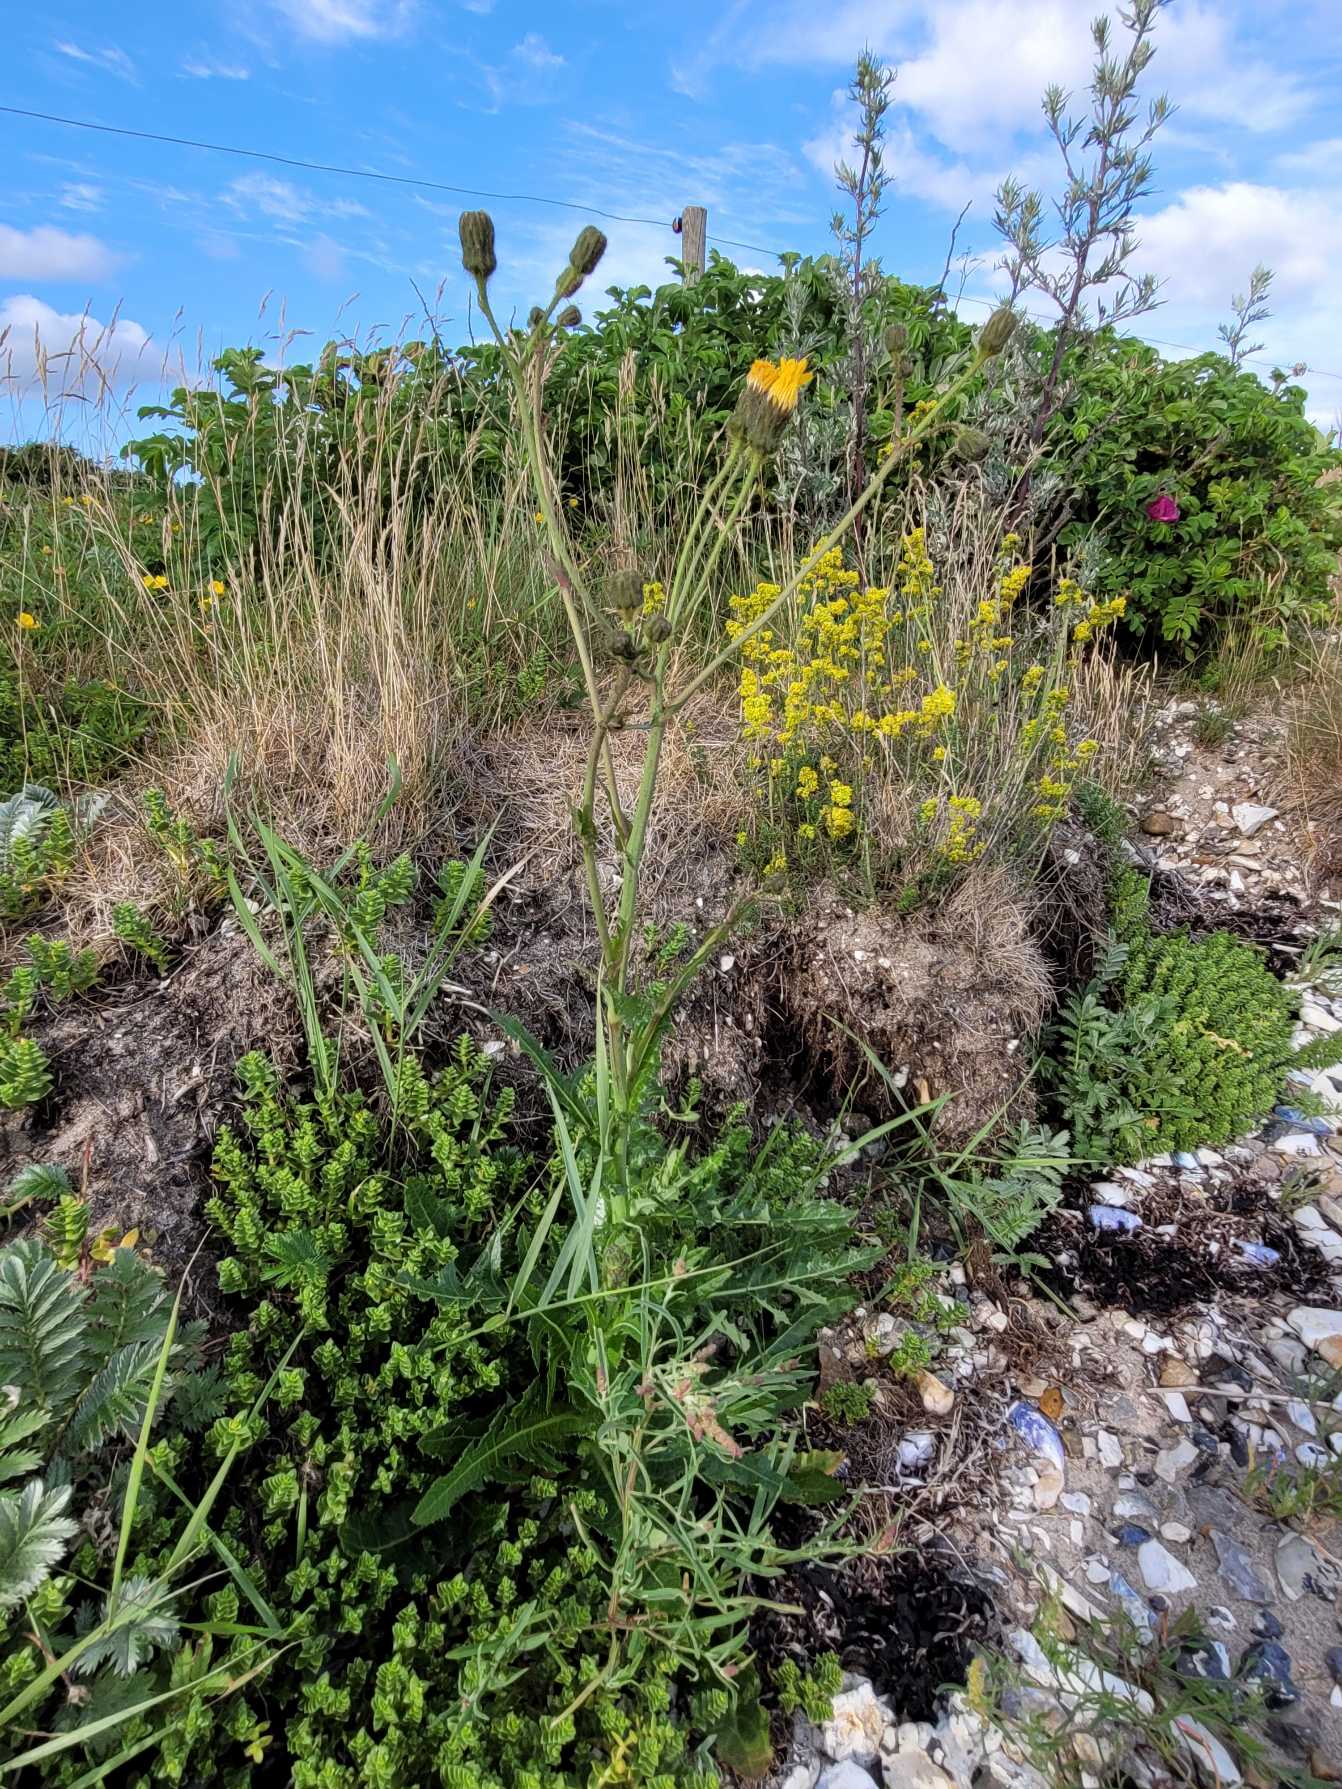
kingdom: Plantae
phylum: Tracheophyta
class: Magnoliopsida
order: Asterales
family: Asteraceae
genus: Sonchus
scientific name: Sonchus arvensis
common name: Ager-svinemælk
